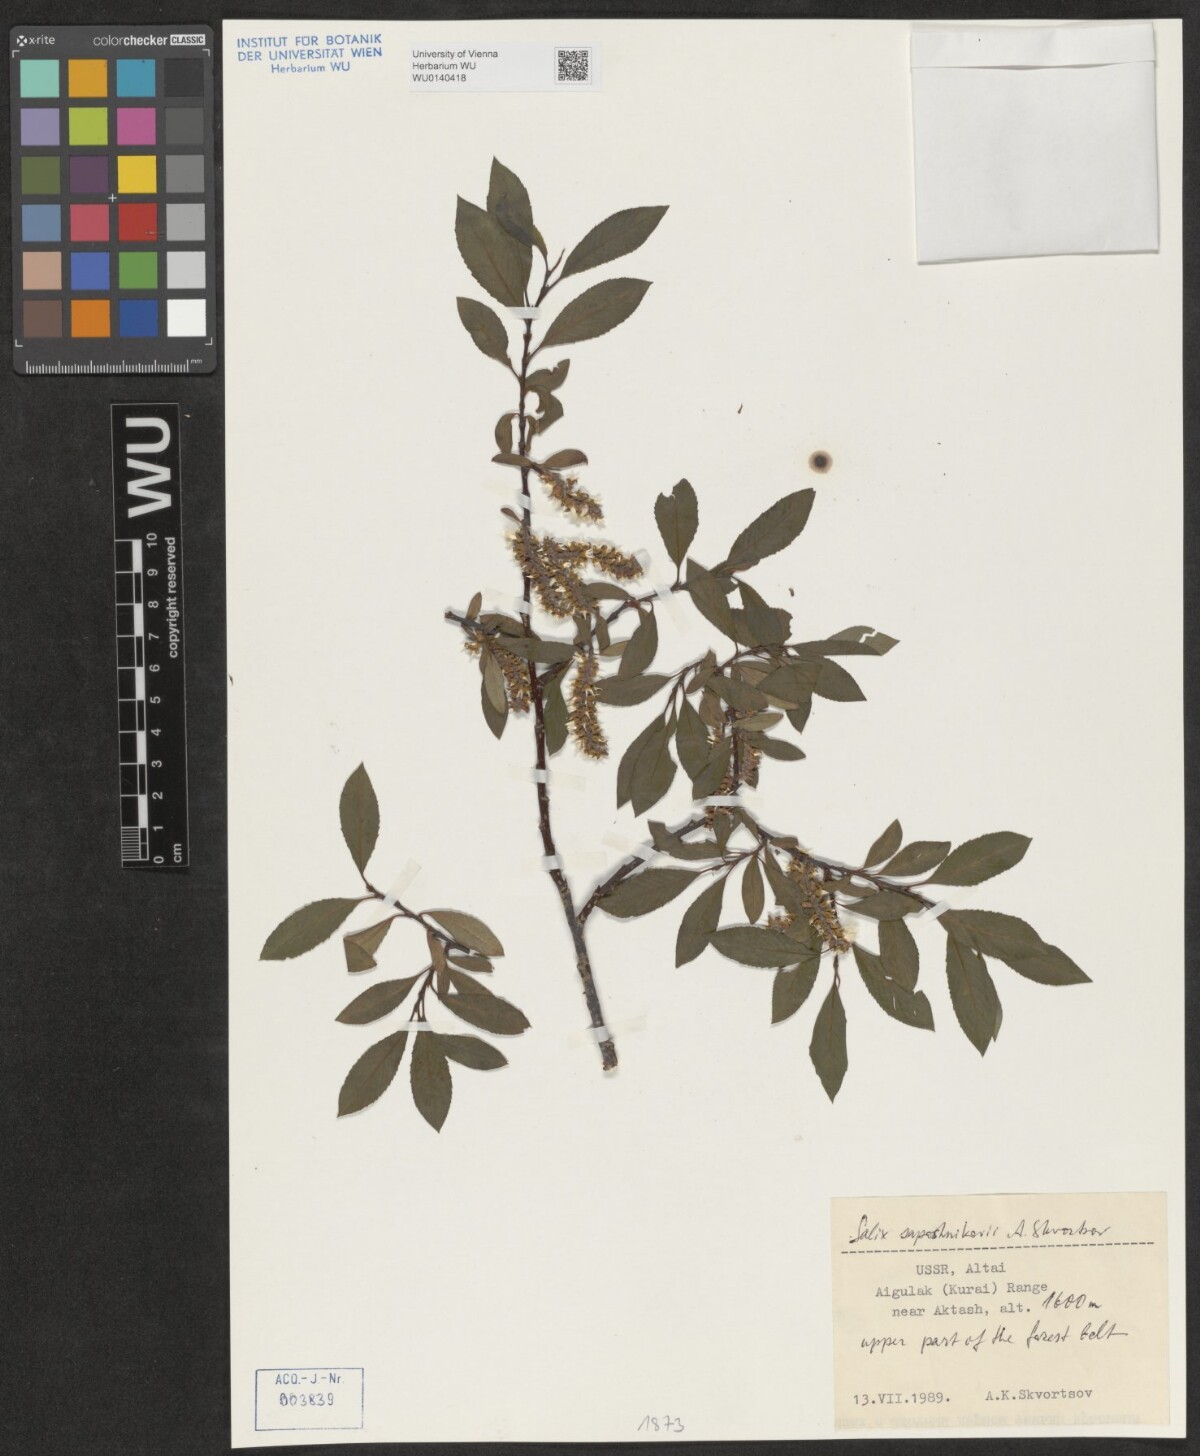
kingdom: Plantae
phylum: Tracheophyta
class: Magnoliopsida
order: Malpighiales
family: Salicaceae
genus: Salix
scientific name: Salix saposhnikovii
